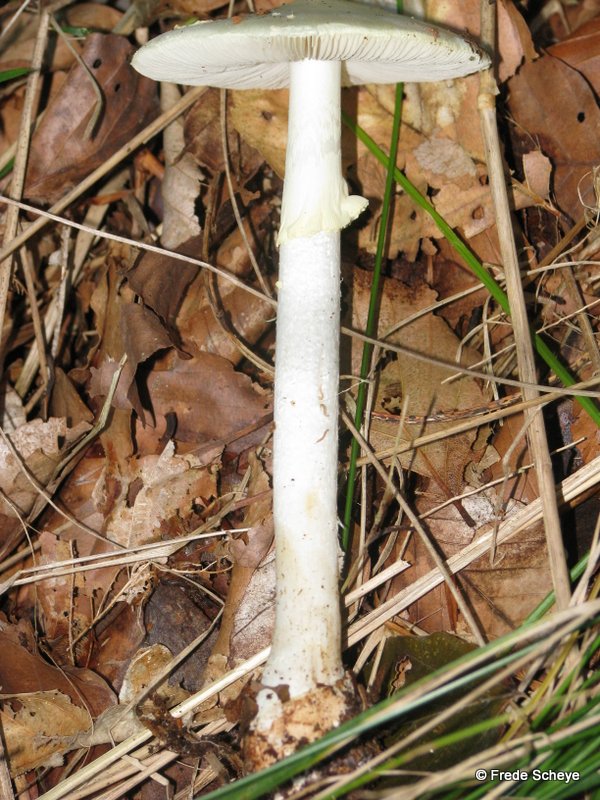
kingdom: Fungi
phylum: Basidiomycota
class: Agaricomycetes
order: Agaricales
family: Amanitaceae
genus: Amanita
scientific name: Amanita citrina
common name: kugleknoldet fluesvamp
